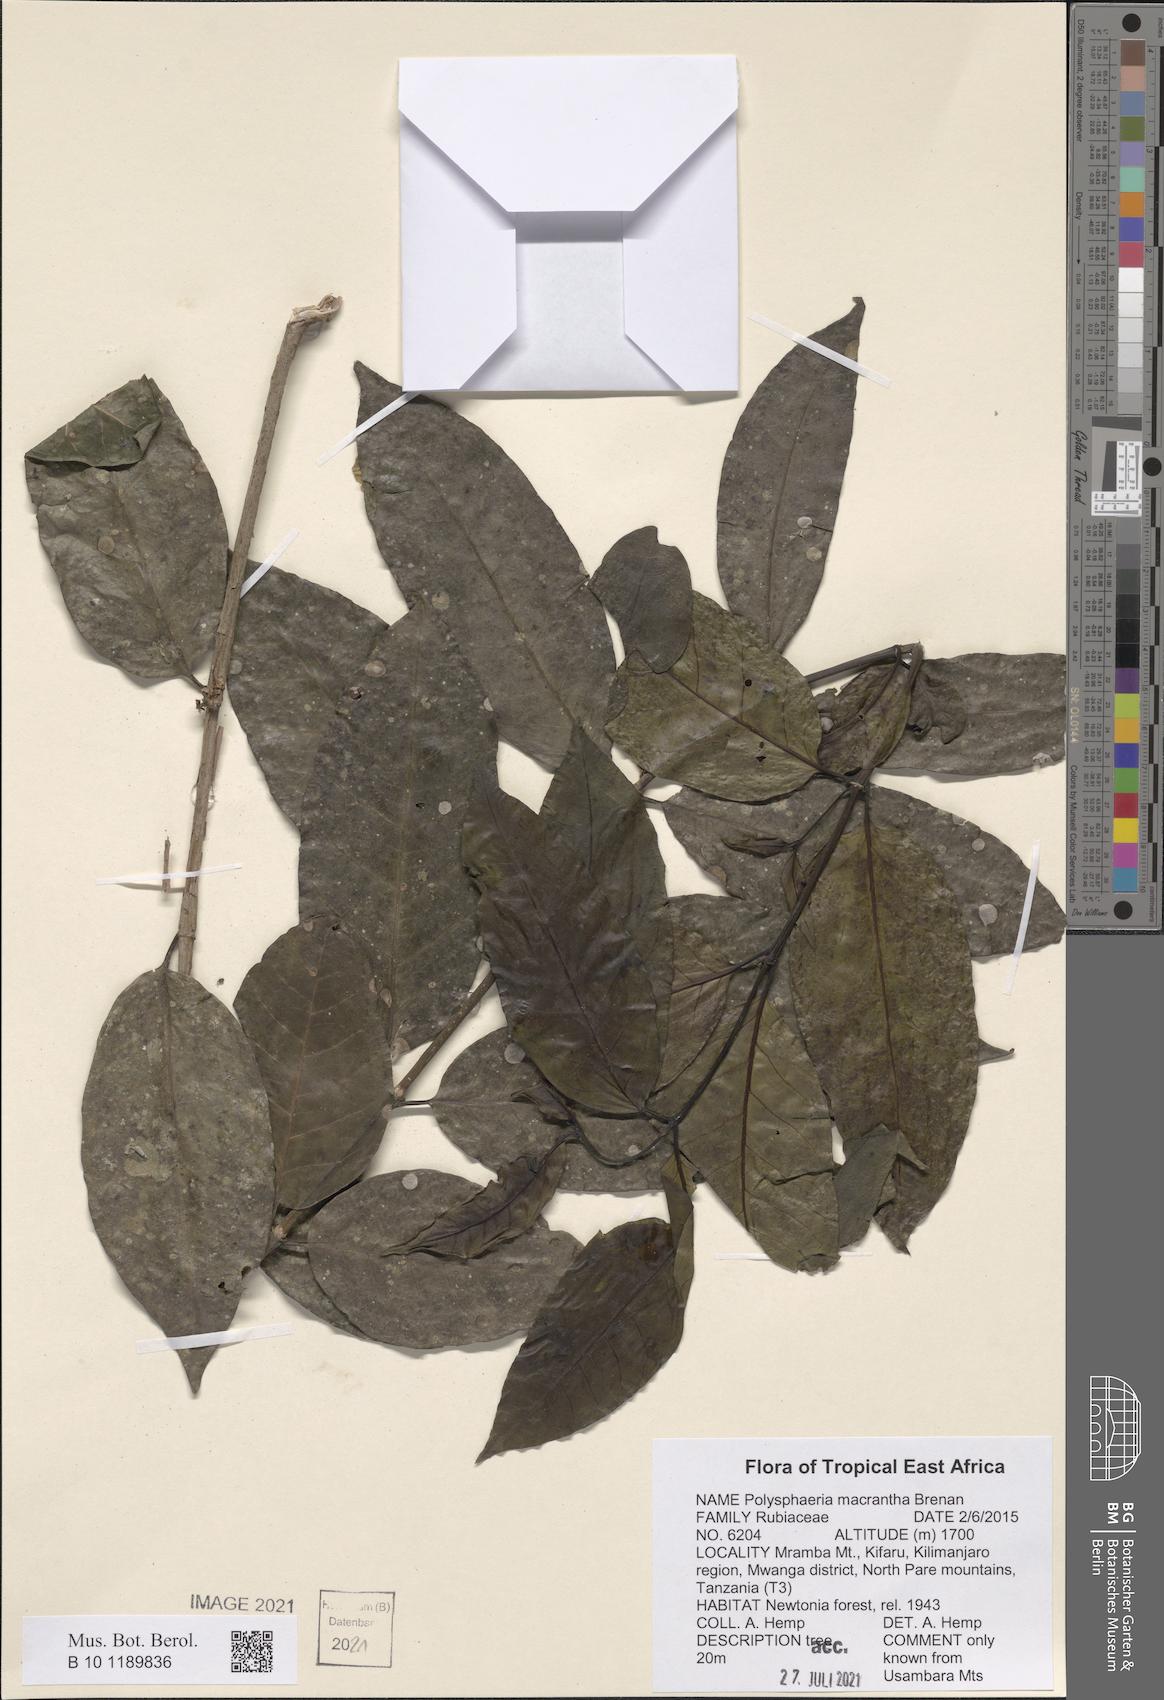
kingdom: Plantae
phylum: Tracheophyta
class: Magnoliopsida
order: Gentianales
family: Rubiaceae
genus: Polysphaeria
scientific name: Polysphaeria macrantha
